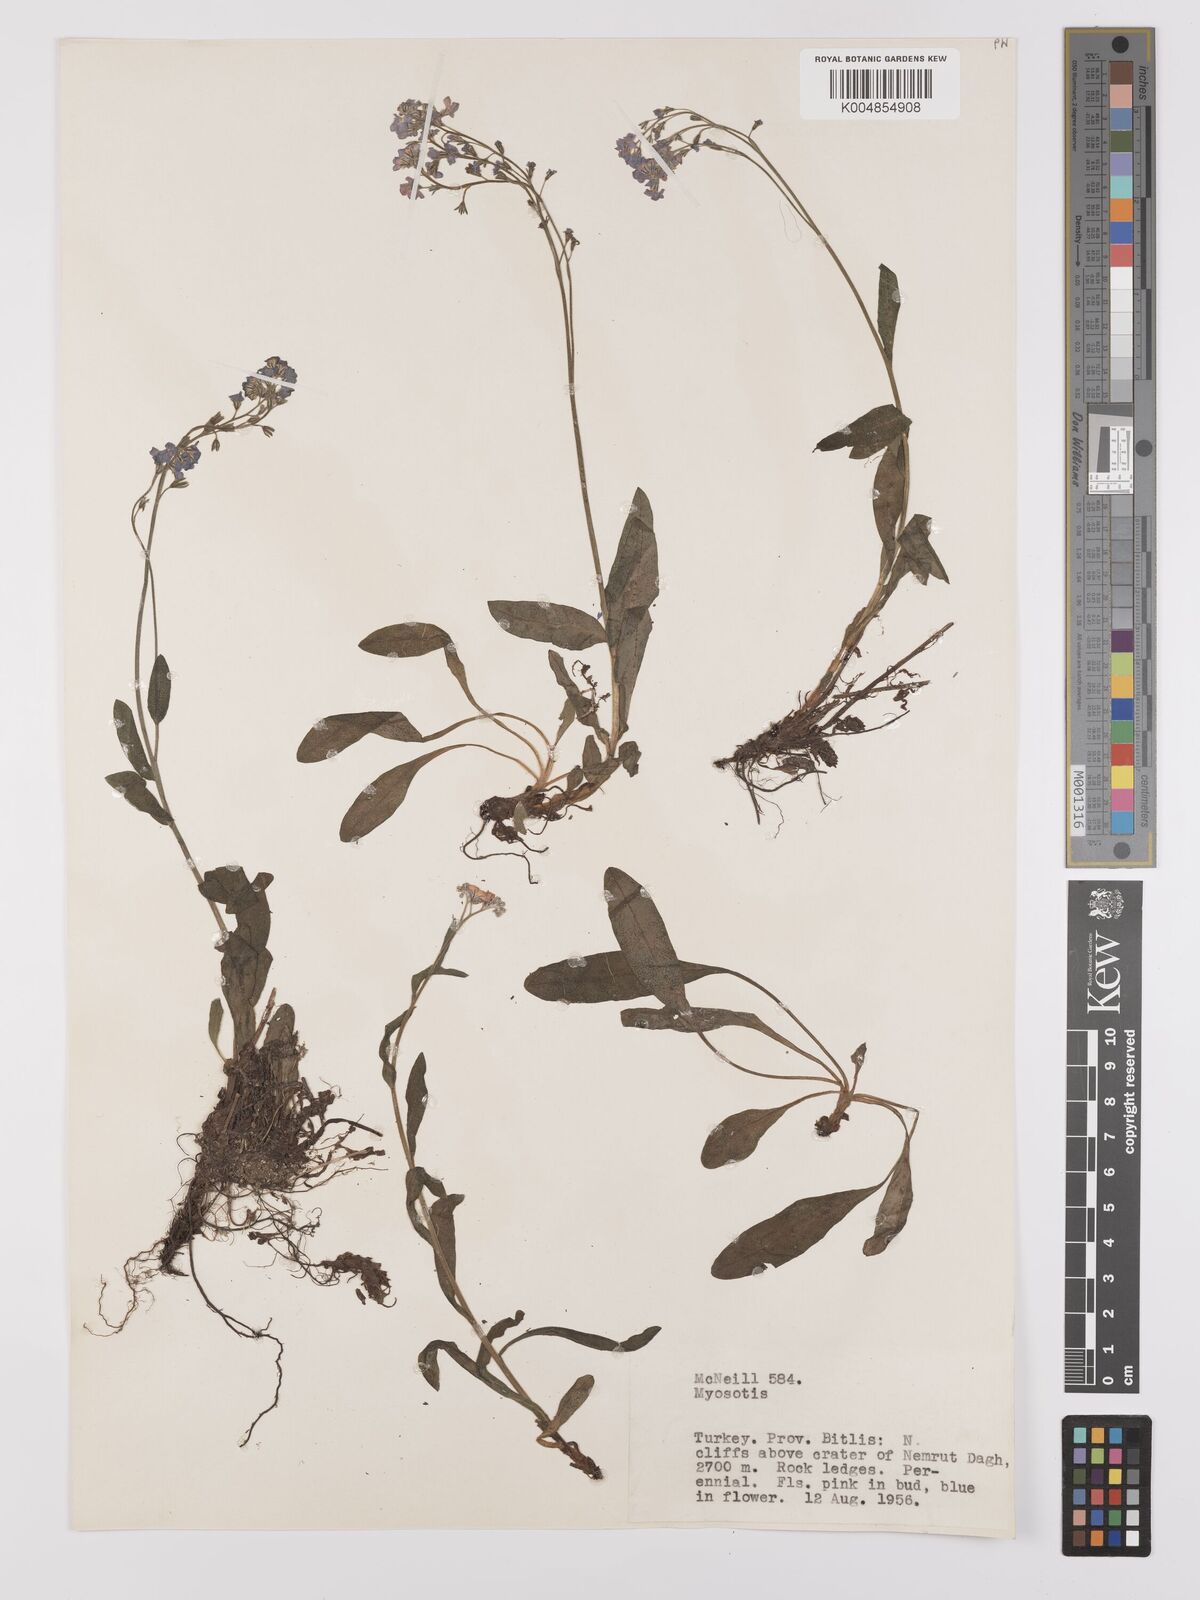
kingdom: Plantae
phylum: Tracheophyta
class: Magnoliopsida
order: Boraginales
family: Boraginaceae
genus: Myosotis
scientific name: Myosotis
